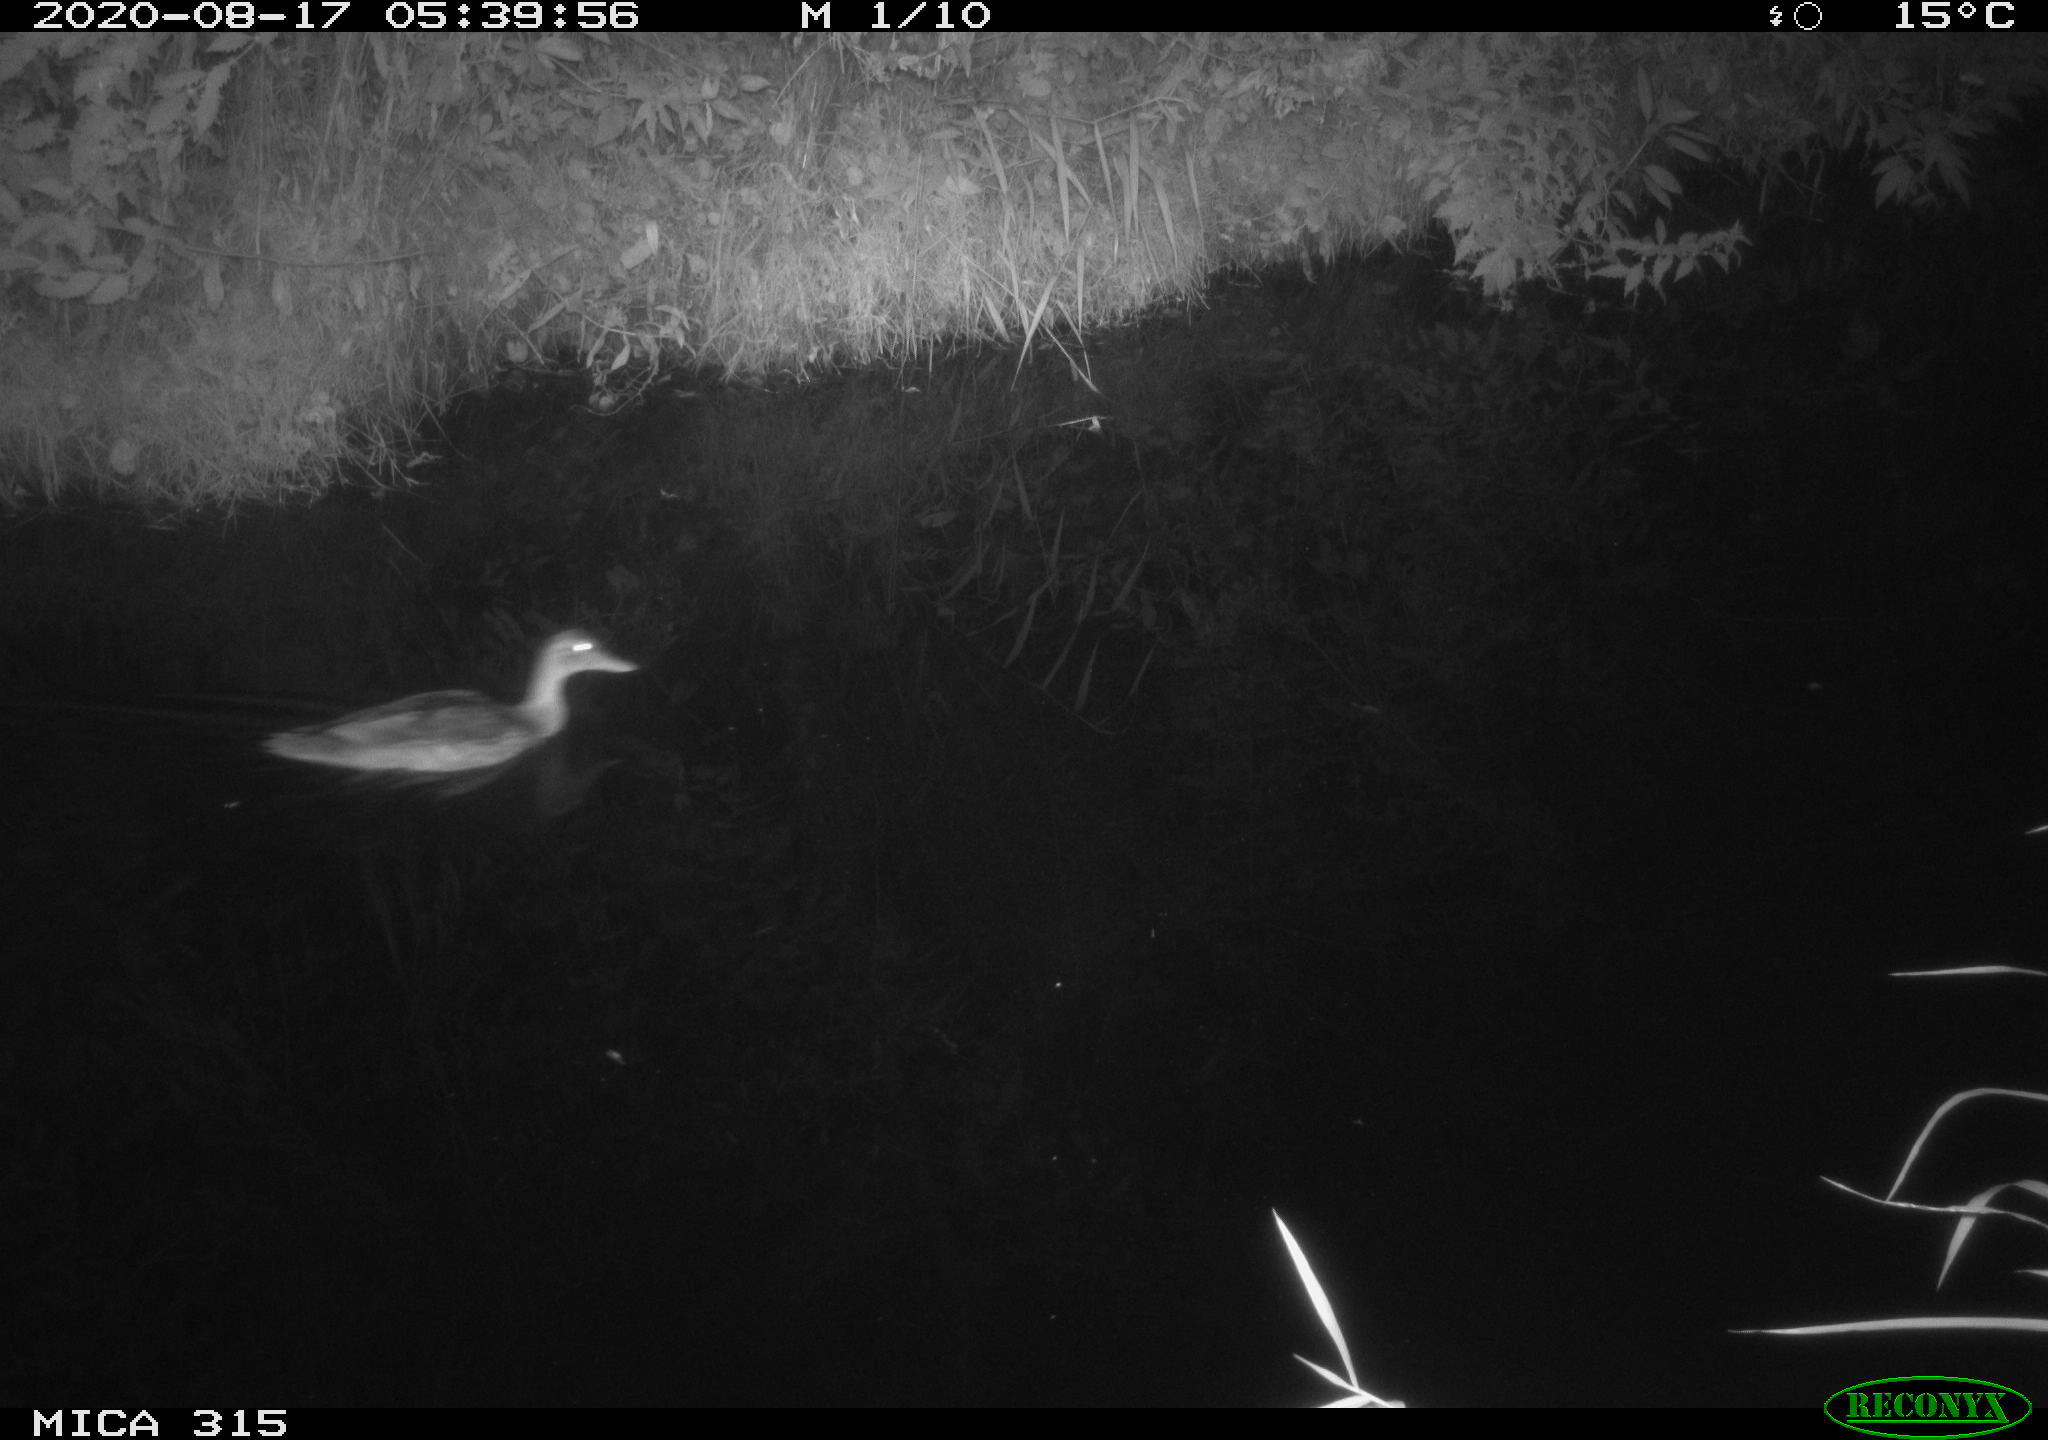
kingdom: Animalia
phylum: Chordata
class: Aves
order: Anseriformes
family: Anatidae
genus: Anas
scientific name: Anas platyrhynchos
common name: Mallard
